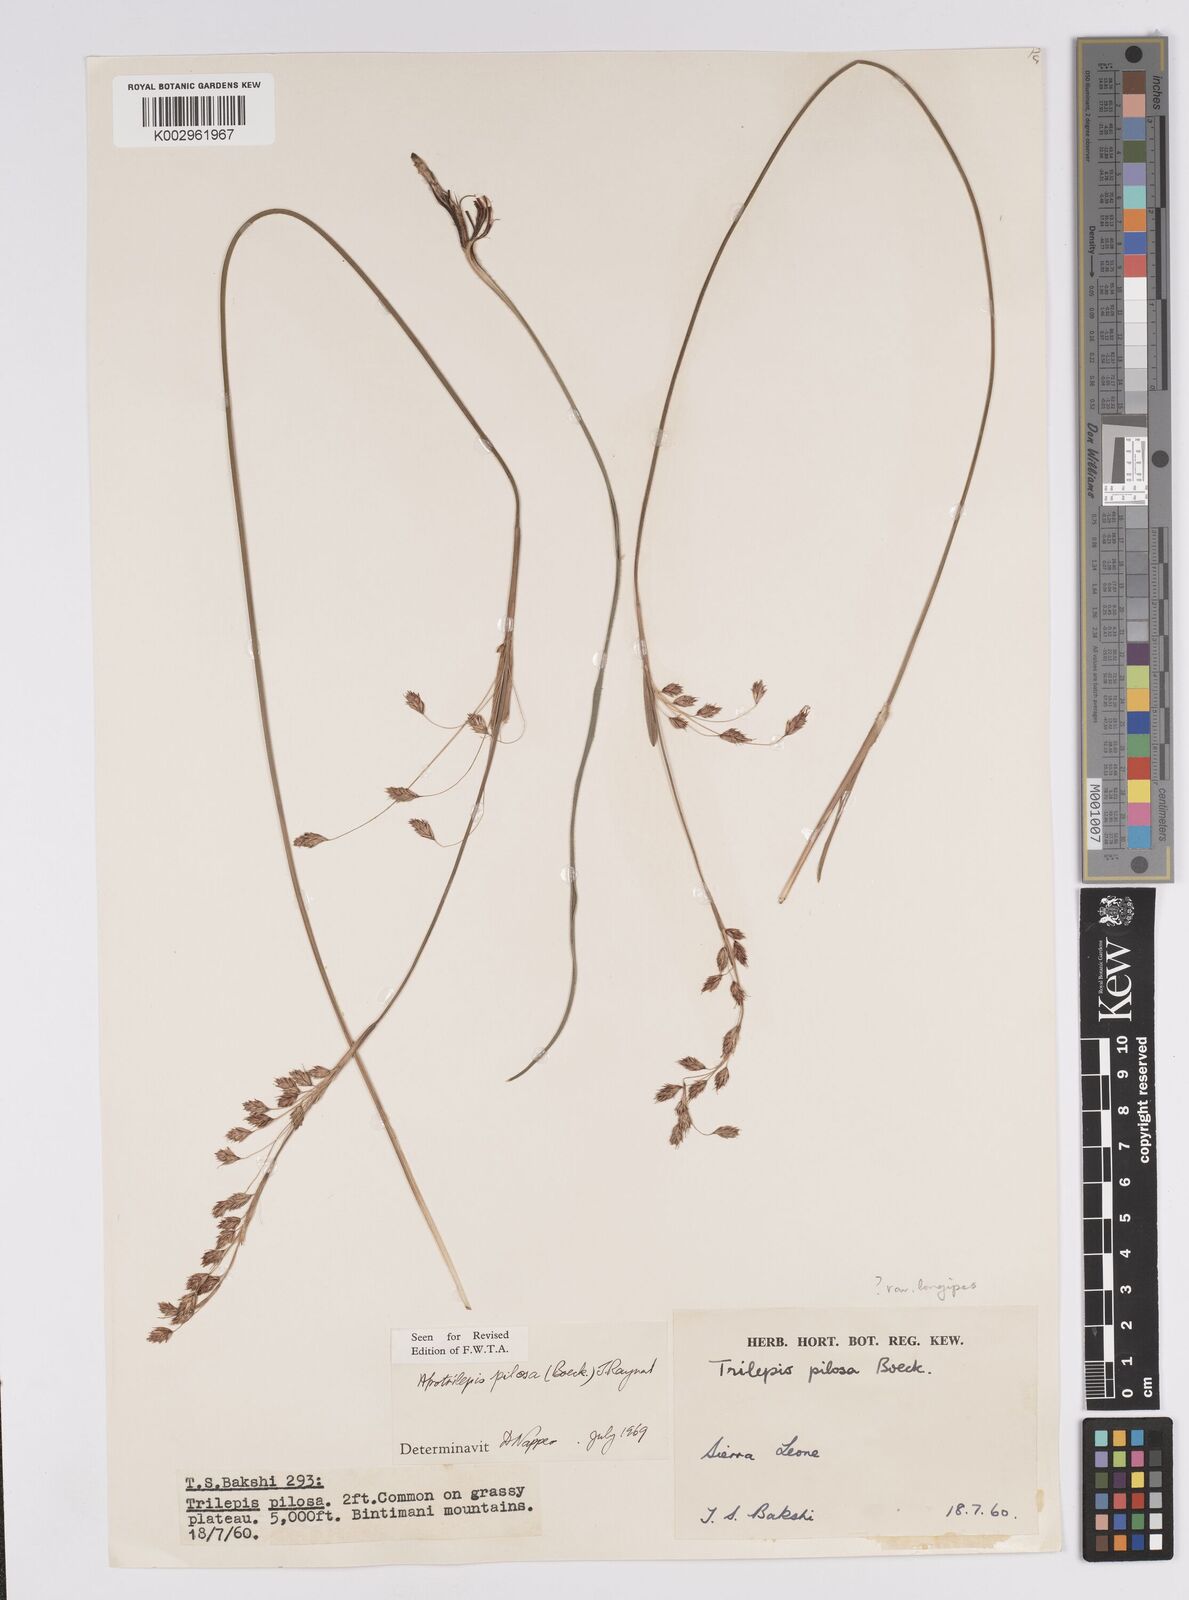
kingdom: Plantae
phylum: Tracheophyta
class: Liliopsida
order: Poales
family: Cyperaceae
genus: Afrotrilepis
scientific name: Afrotrilepis pilosa
